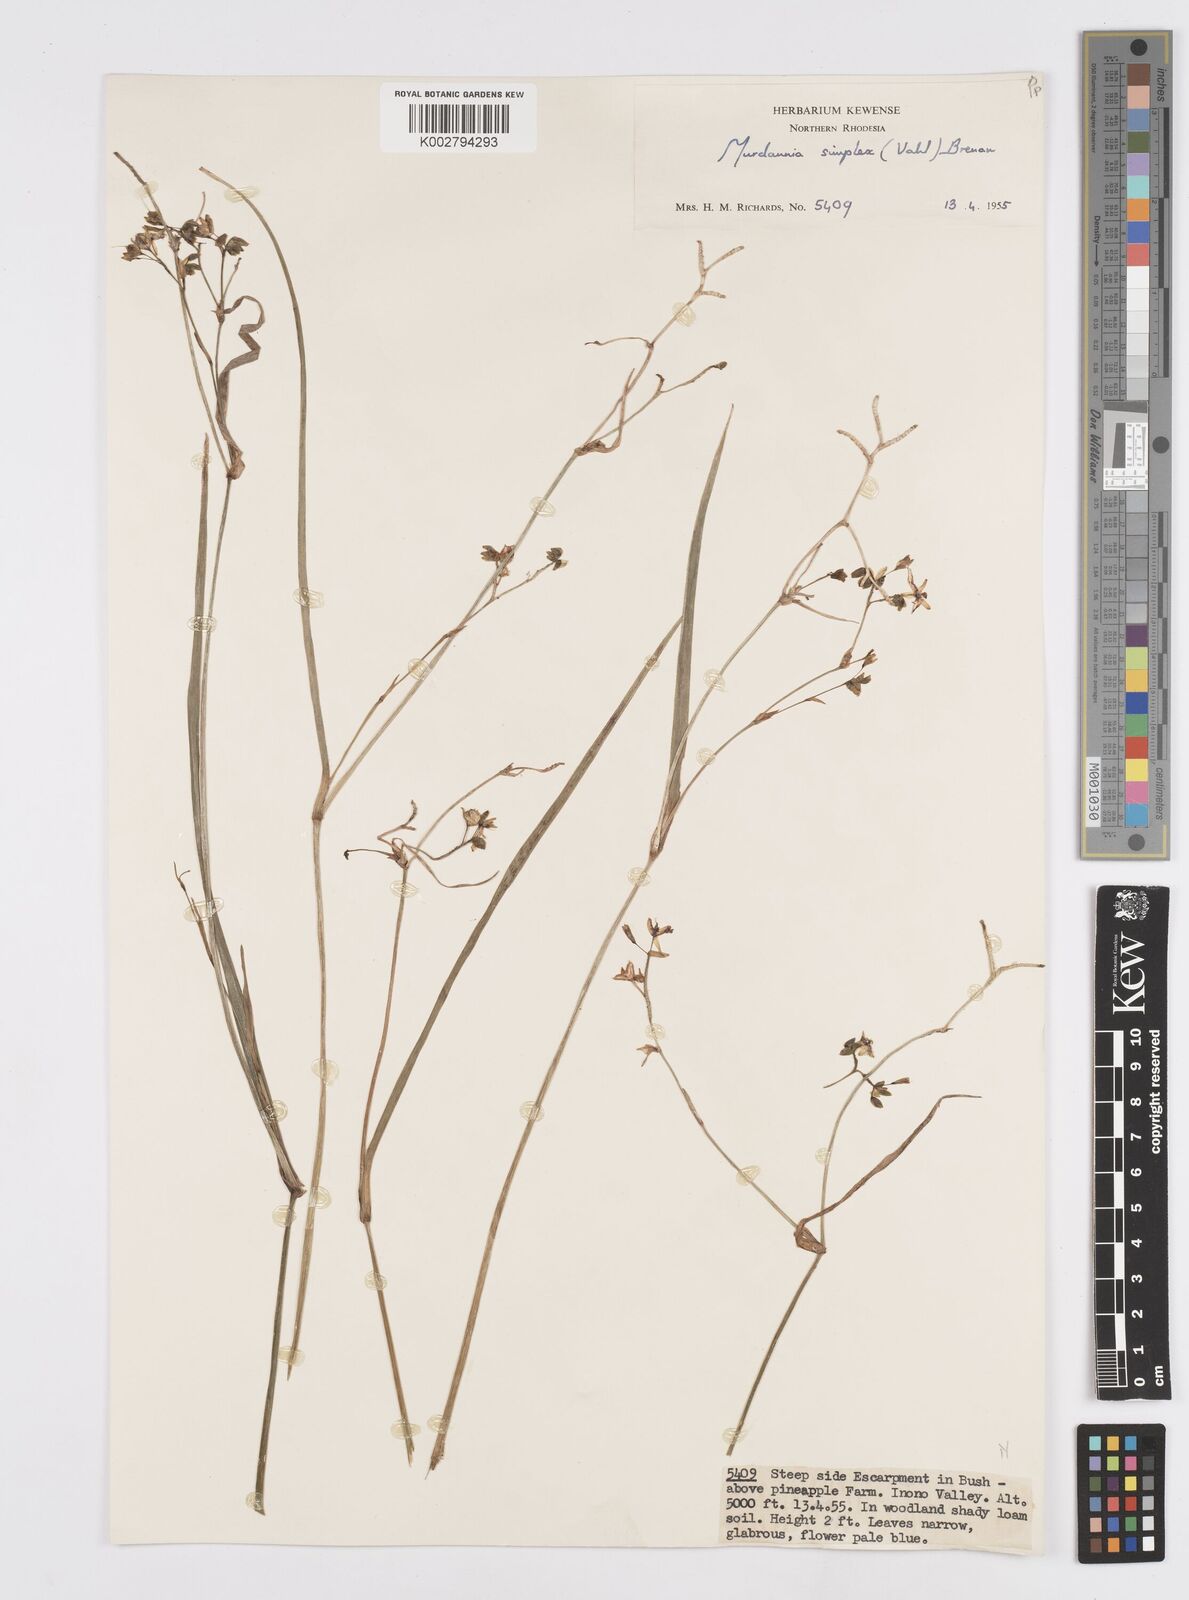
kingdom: Plantae
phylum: Tracheophyta
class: Liliopsida
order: Commelinales
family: Commelinaceae
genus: Murdannia
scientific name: Murdannia simplex
